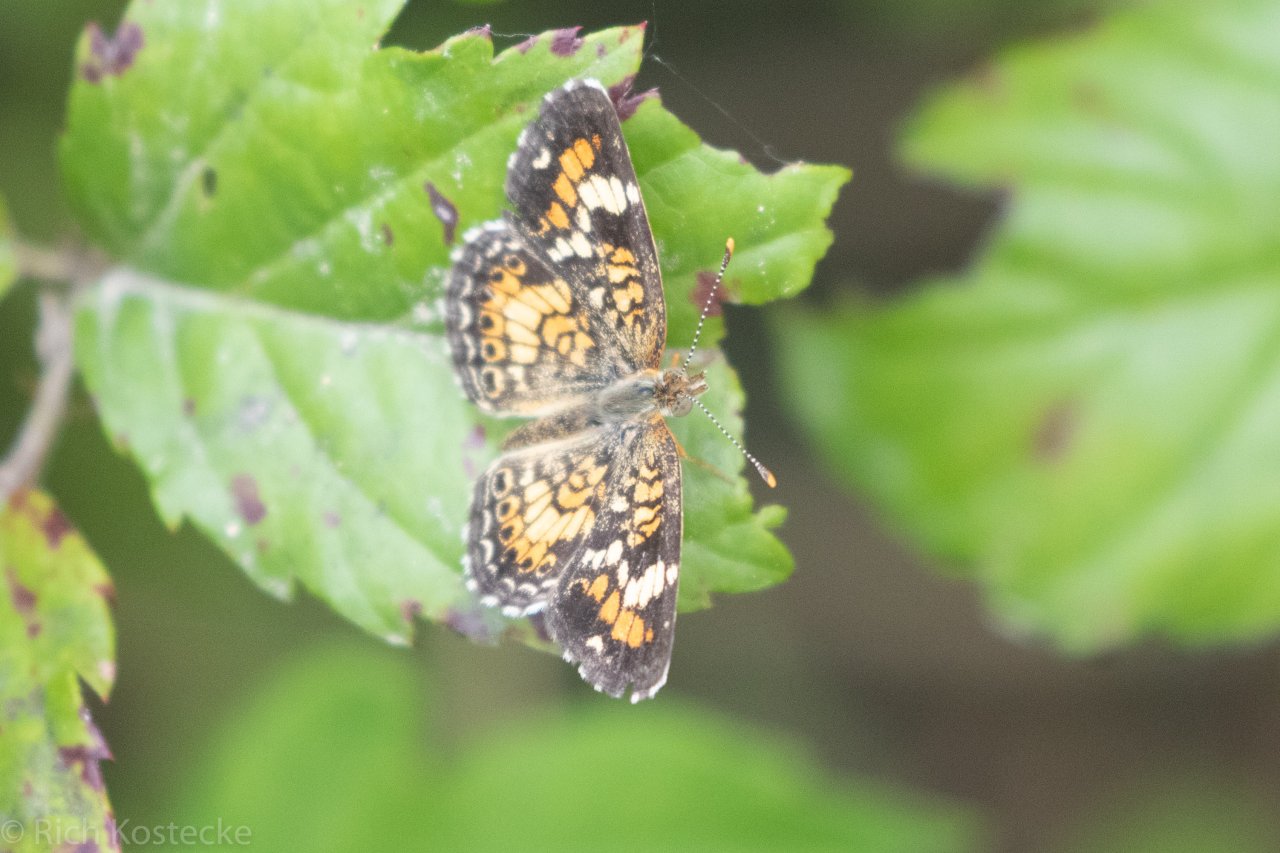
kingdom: Animalia
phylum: Arthropoda
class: Insecta
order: Lepidoptera
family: Nymphalidae
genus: Phyciodes
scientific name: Phyciodes phaon
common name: Phaon Crescent
